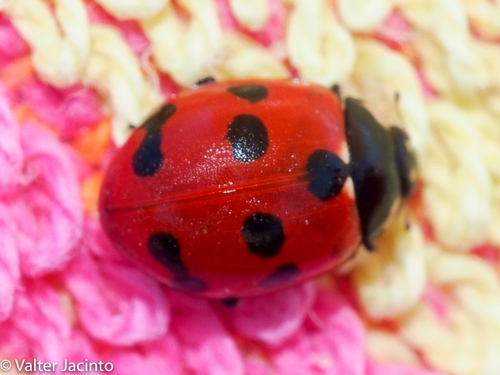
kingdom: Animalia
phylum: Arthropoda
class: Insecta
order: Coleoptera
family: Coccinellidae
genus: Coccinella
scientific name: Coccinella undecimpunctata
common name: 11-spot ladybird
